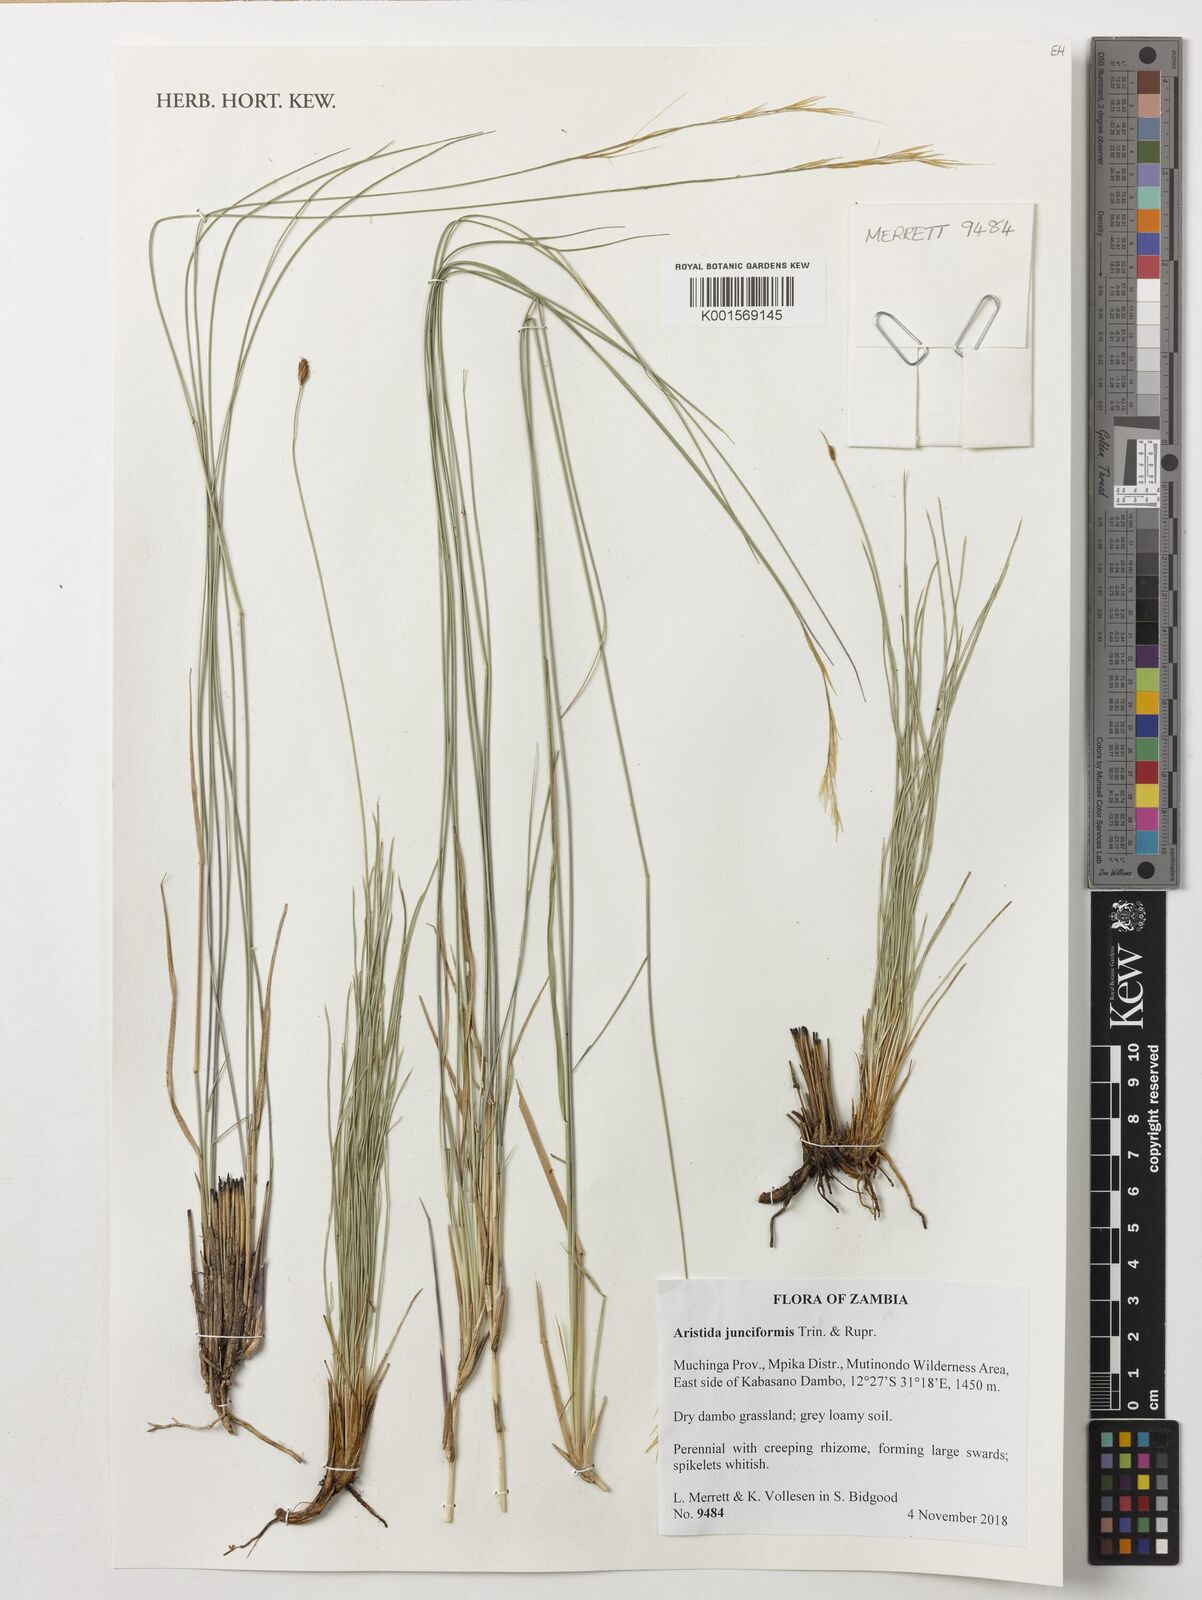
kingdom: Plantae
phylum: Tracheophyta
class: Liliopsida
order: Poales
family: Poaceae
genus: Aristida
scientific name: Aristida junciformis
